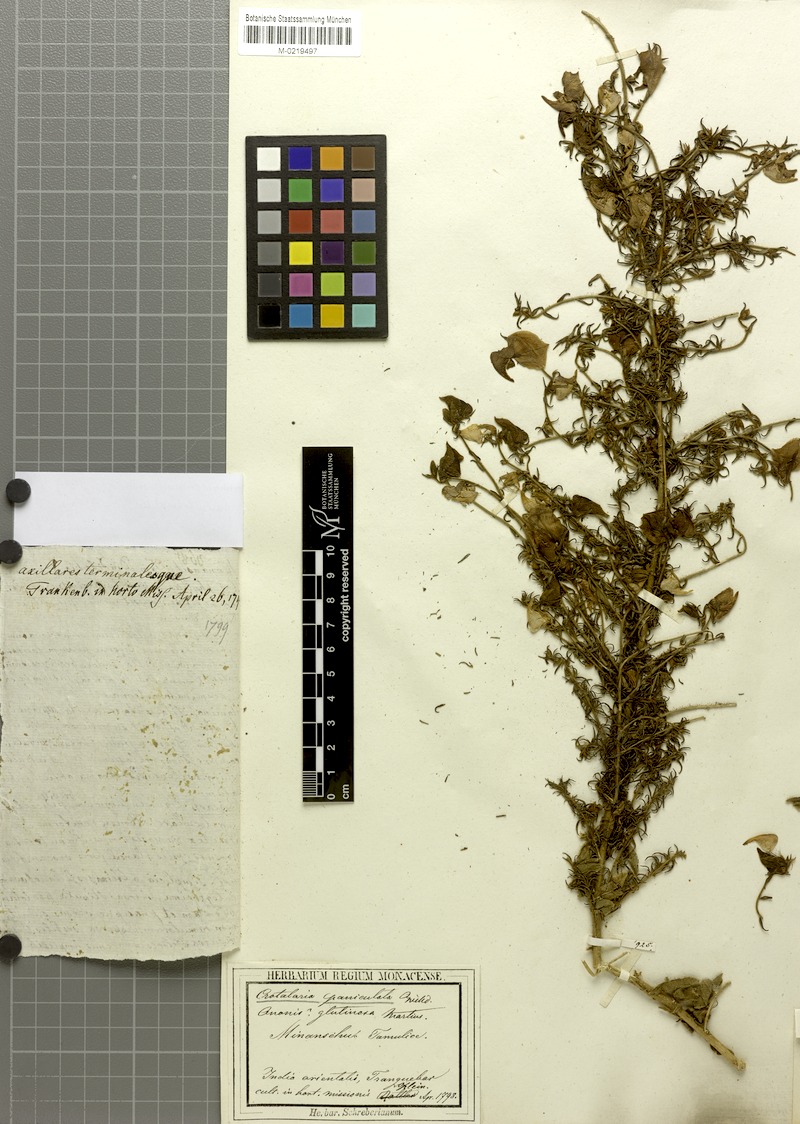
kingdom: Plantae
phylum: Tracheophyta
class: Magnoliopsida
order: Fabales
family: Fabaceae
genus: Crotalaria
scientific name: Crotalaria paniculata
